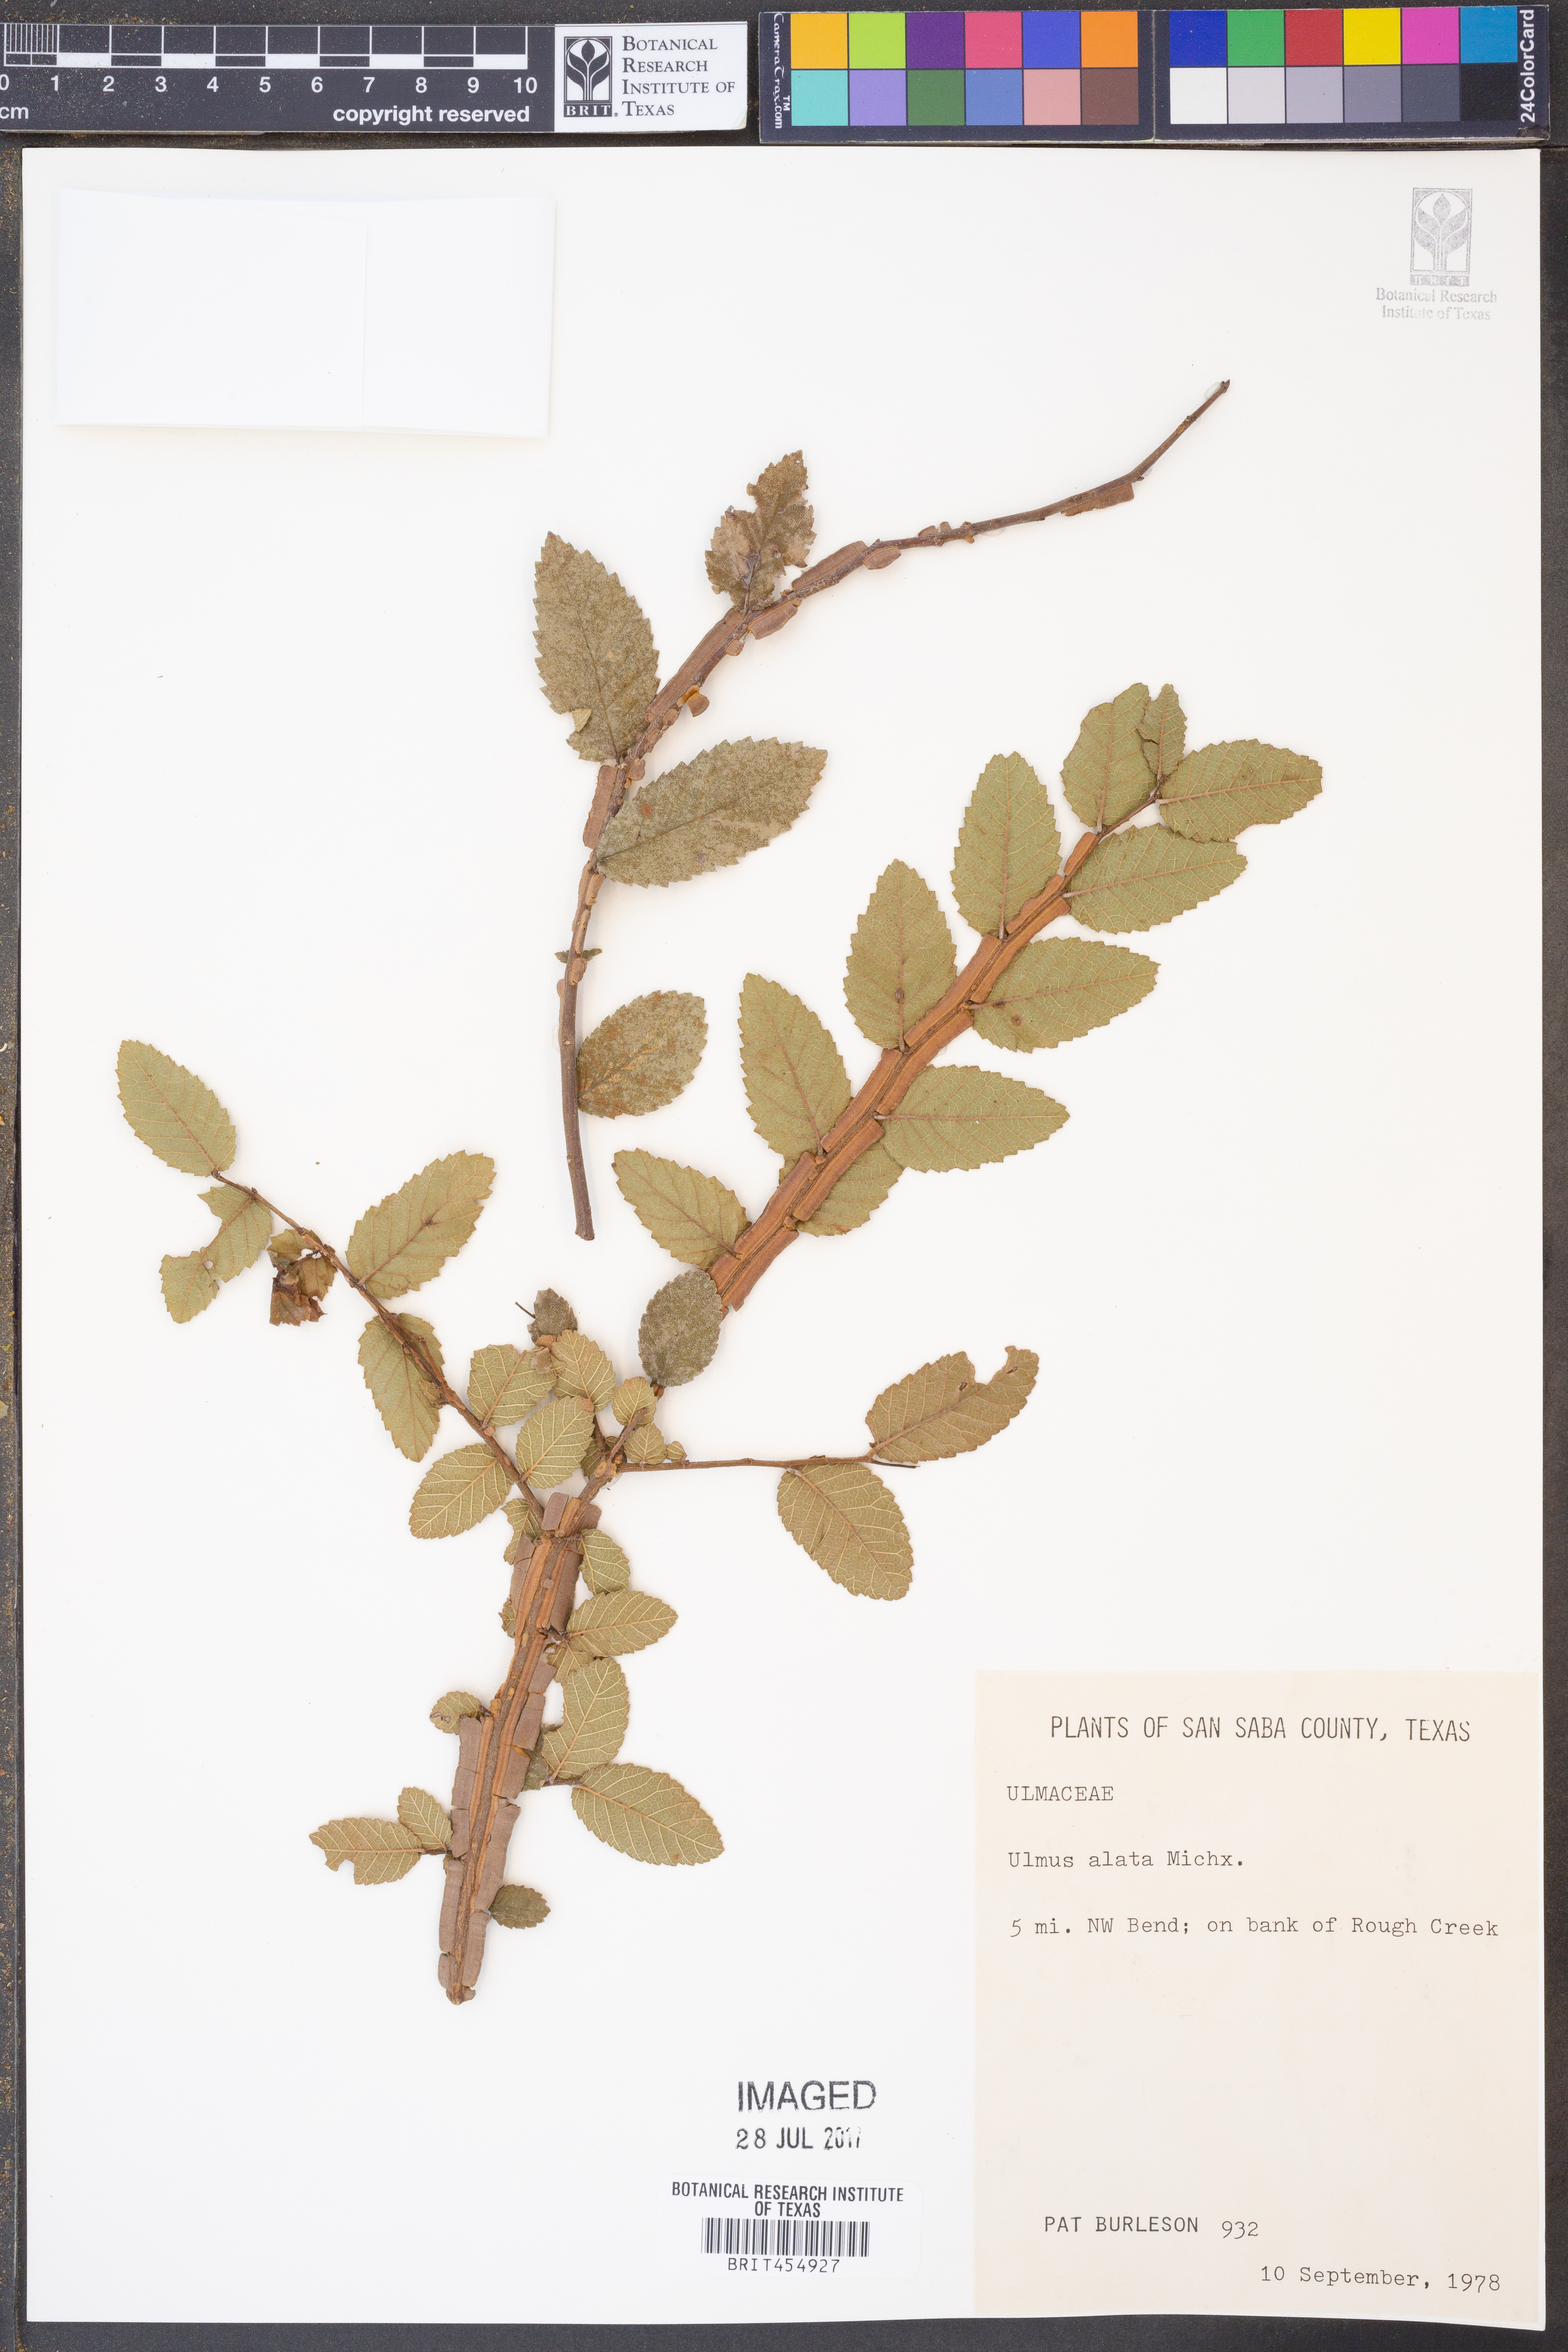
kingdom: Plantae
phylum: Tracheophyta
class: Magnoliopsida
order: Rosales
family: Ulmaceae
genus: Ulmus
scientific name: Ulmus alata
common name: Winged elm
